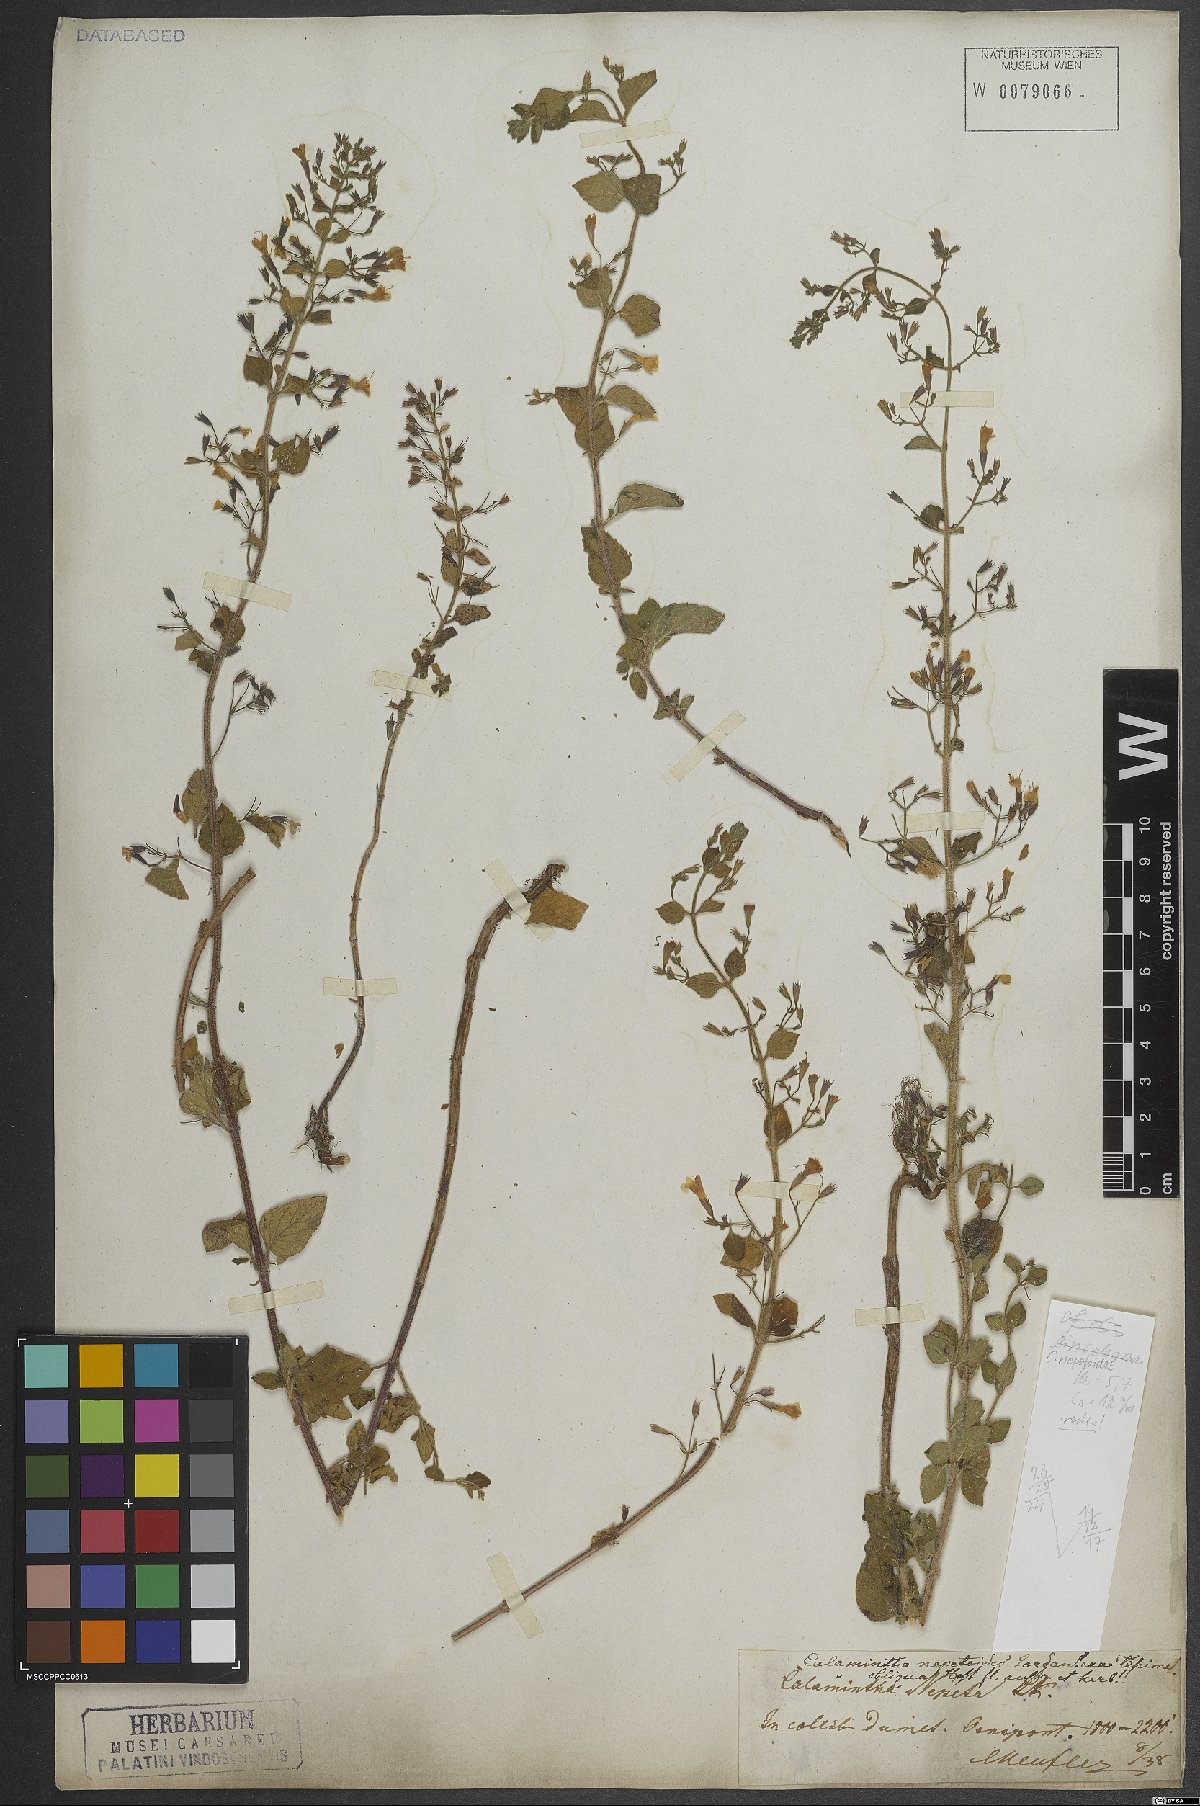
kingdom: Plantae
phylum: Tracheophyta
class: Magnoliopsida
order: Lamiales
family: Lamiaceae
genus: Clinopodium
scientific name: Clinopodium nepeta
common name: Lesser calamint
